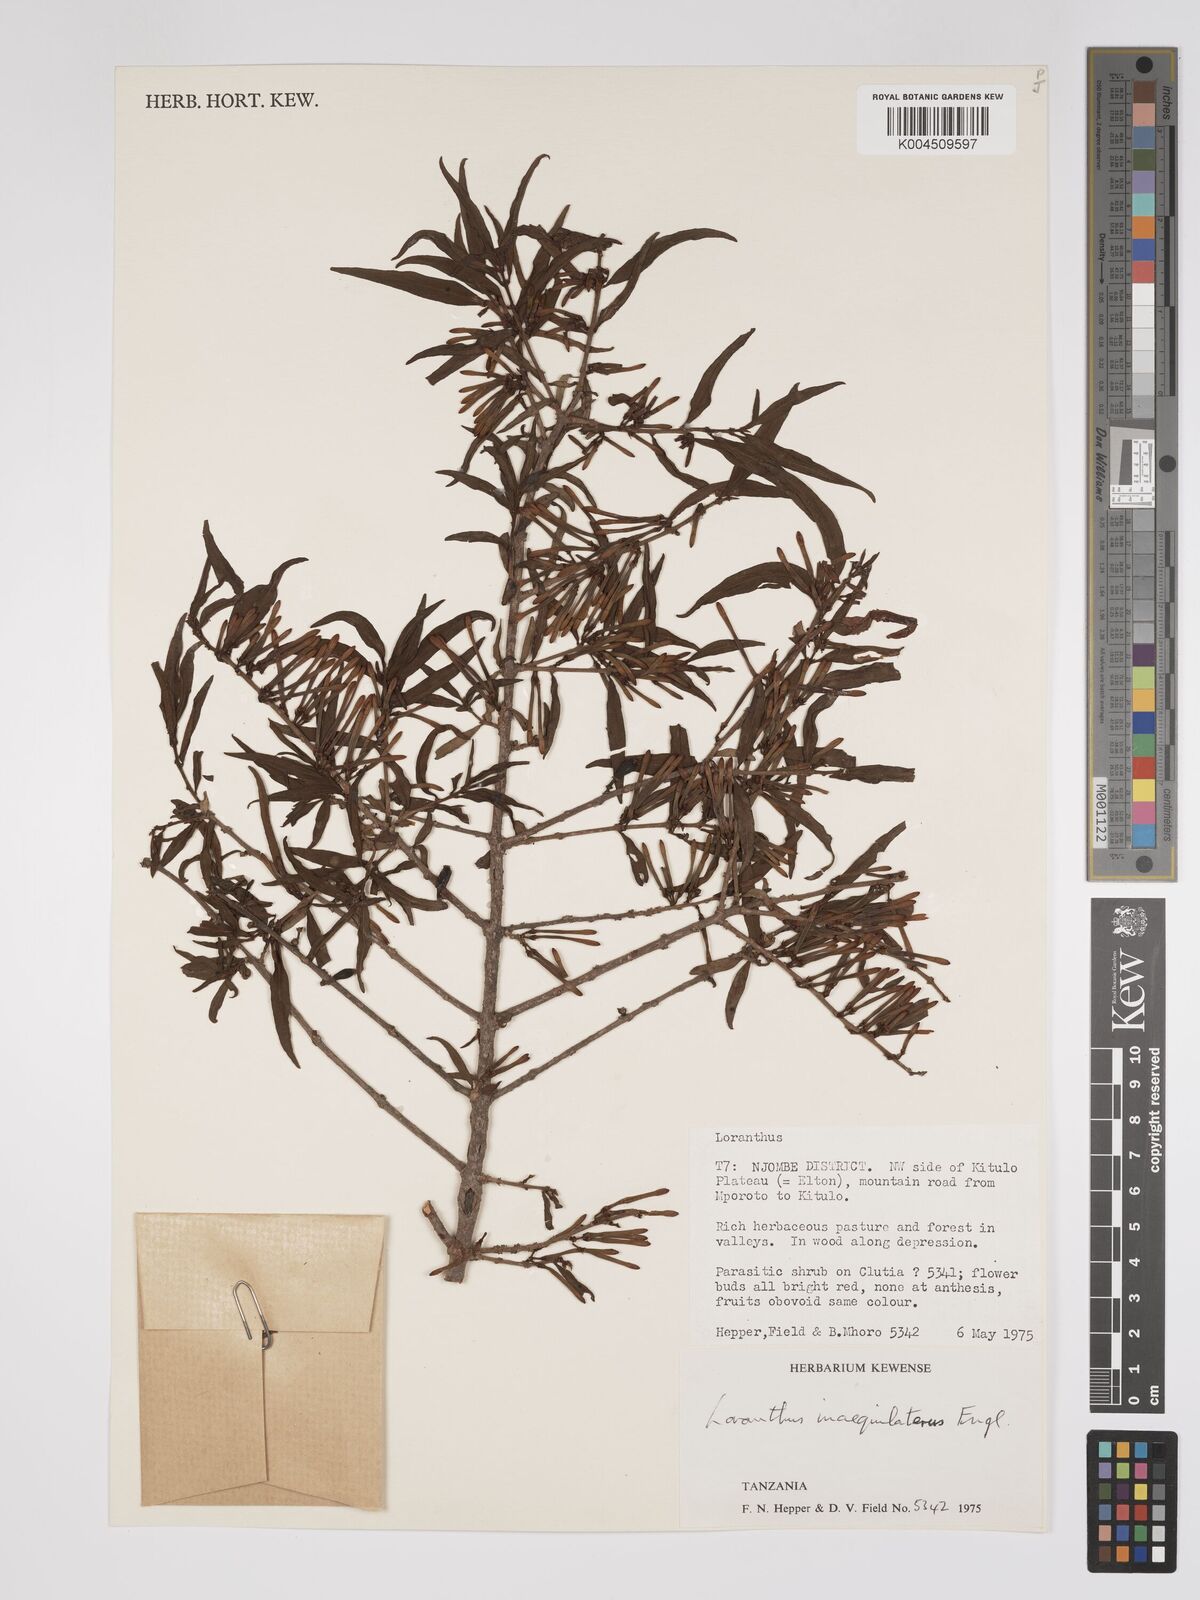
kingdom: Plantae
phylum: Tracheophyta
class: Magnoliopsida
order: Santalales
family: Loranthaceae
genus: Englerina
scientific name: Englerina inaequilatera
